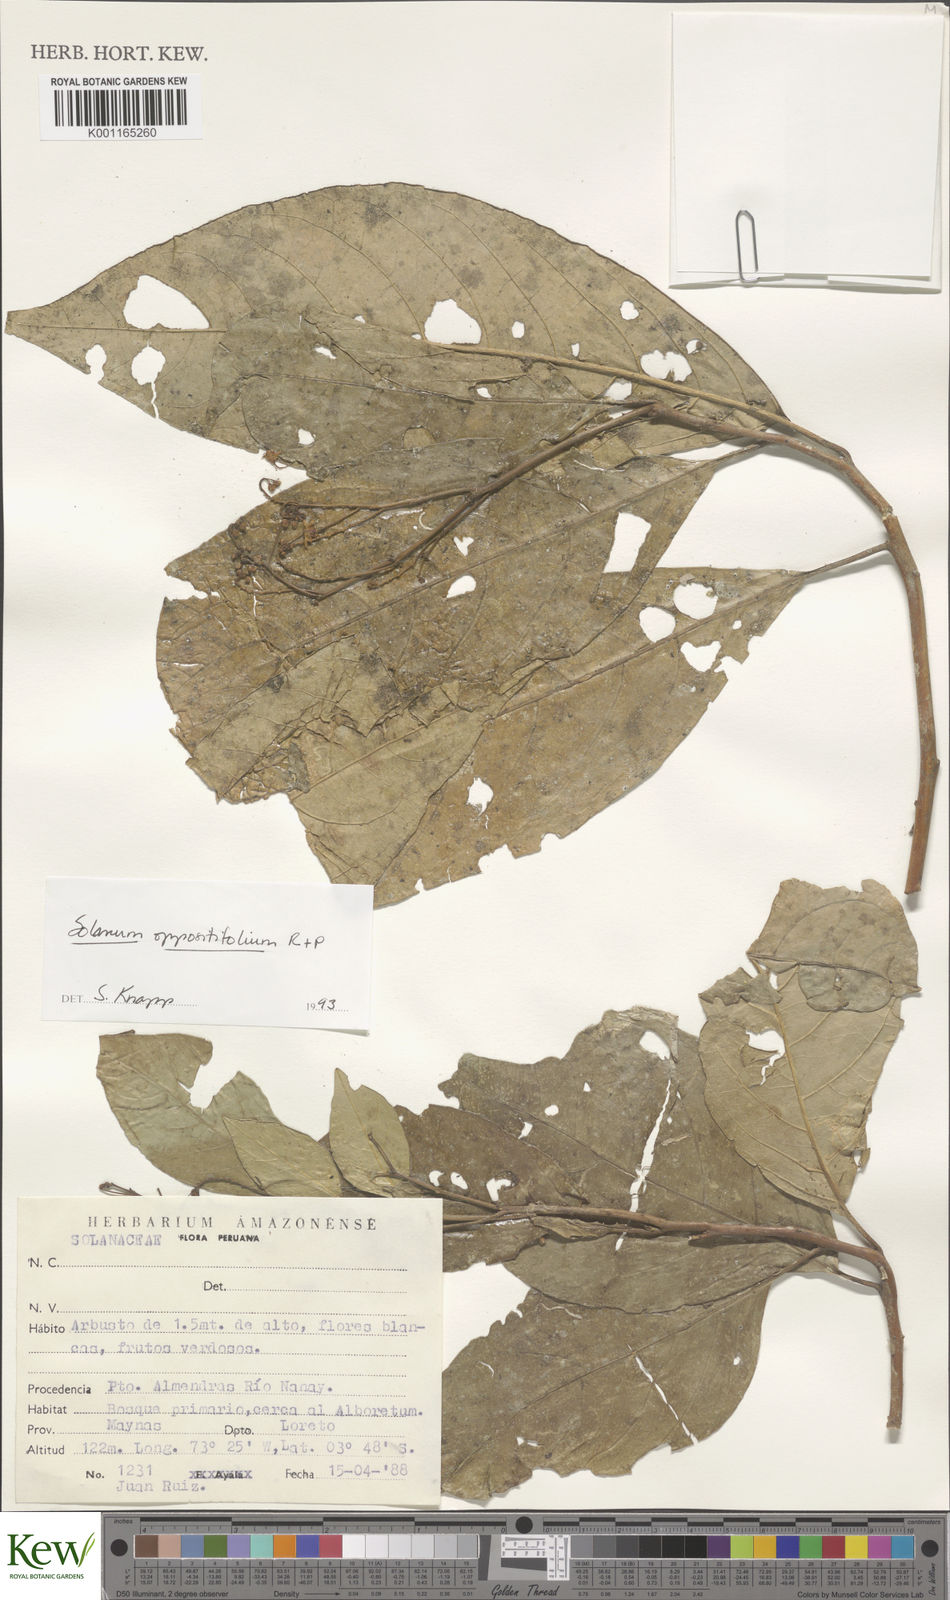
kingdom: Plantae
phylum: Tracheophyta
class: Magnoliopsida
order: Solanales
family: Solanaceae
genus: Solanum
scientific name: Solanum oppositifolium
